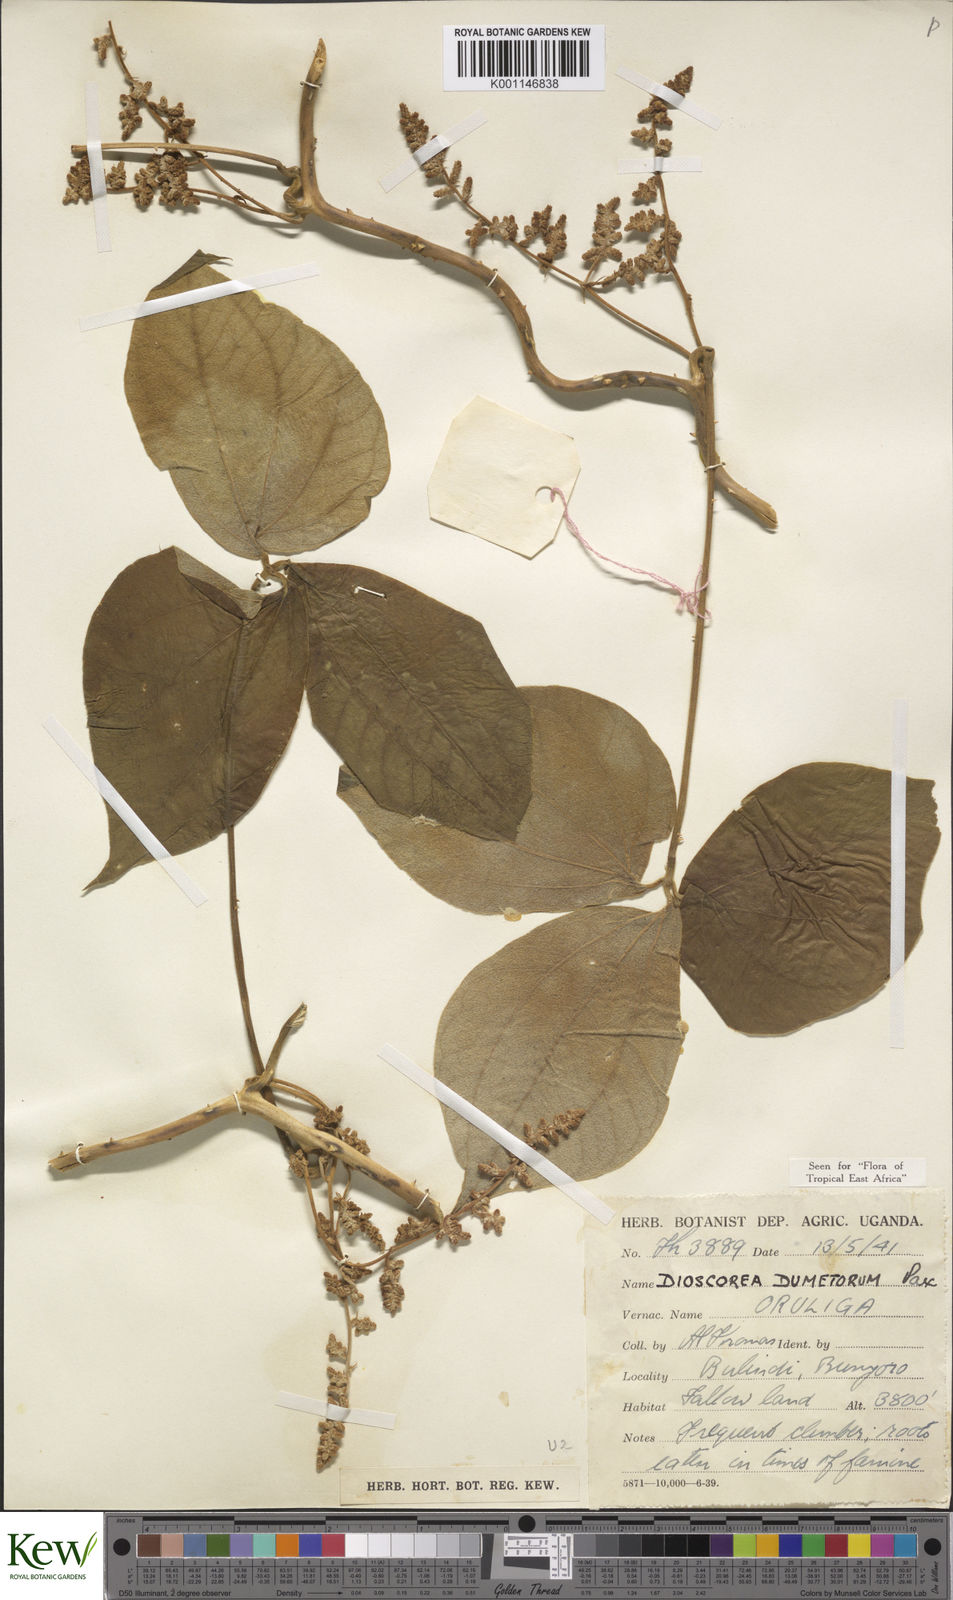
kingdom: Plantae
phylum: Tracheophyta
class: Liliopsida
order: Dioscoreales
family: Dioscoreaceae
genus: Dioscorea
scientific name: Dioscorea dumetorum
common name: African bitter yam
